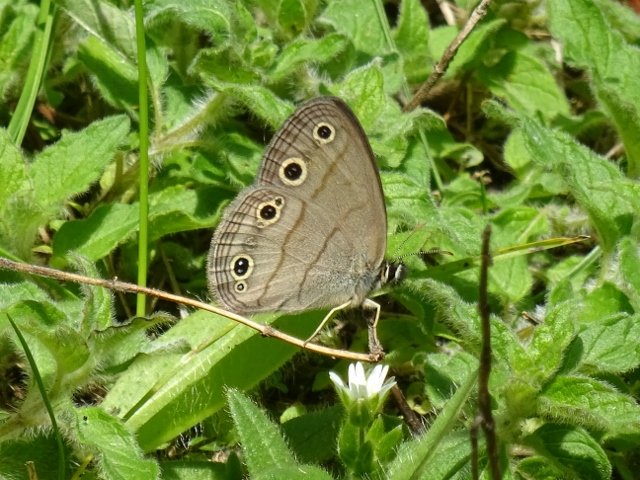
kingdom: Animalia
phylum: Arthropoda
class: Insecta
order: Lepidoptera
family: Nymphalidae
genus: Euptychia
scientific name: Euptychia cymela
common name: Little Wood Satyr
